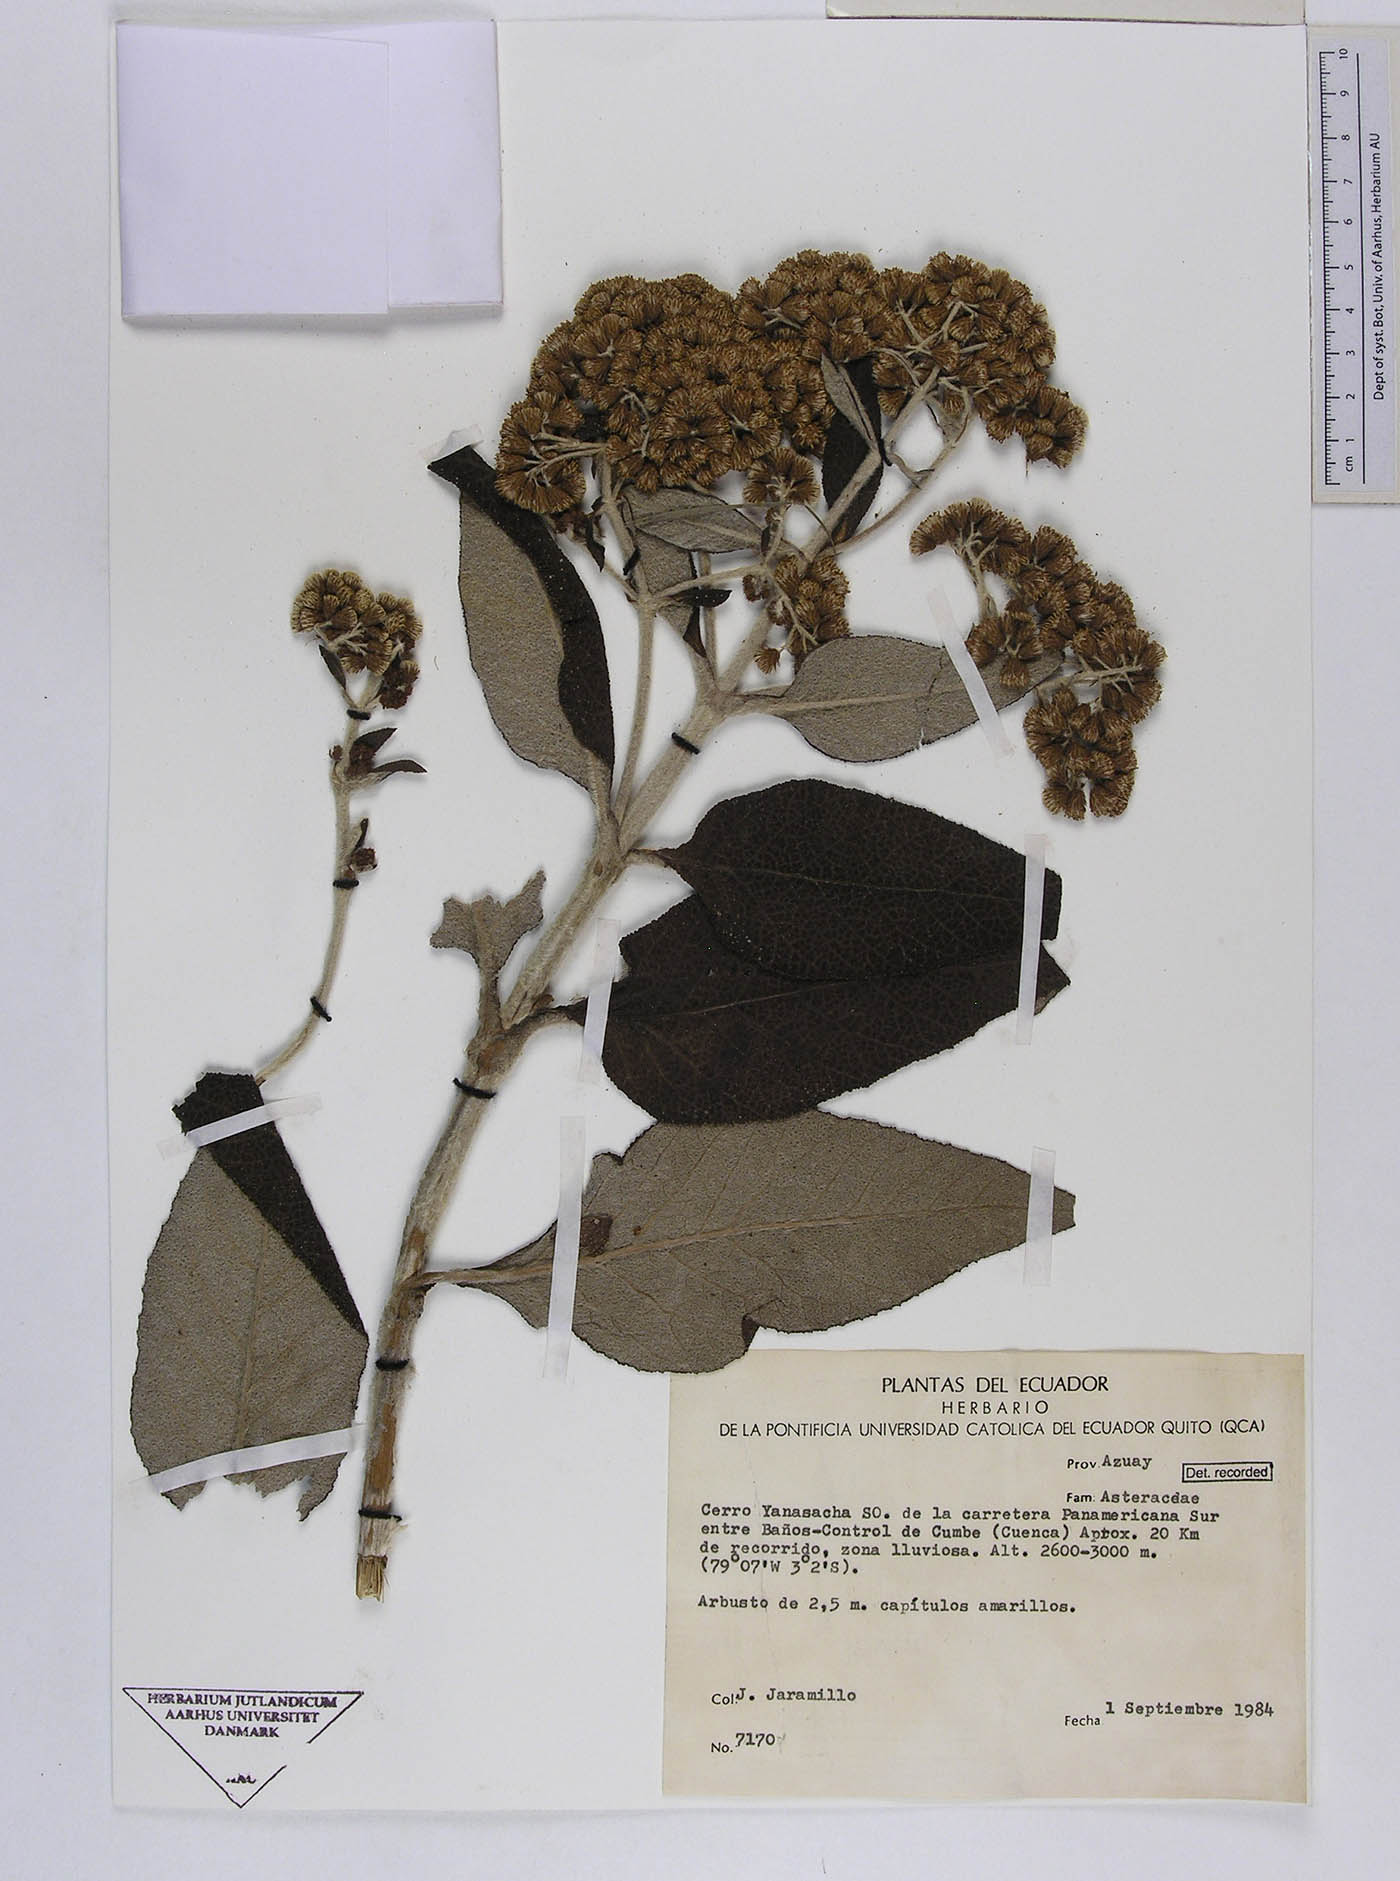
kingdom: Plantae
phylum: Tracheophyta
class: Magnoliopsida
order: Asterales
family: Asteraceae
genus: Ferreyranthus
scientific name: Ferreyranthus verbascifolius
